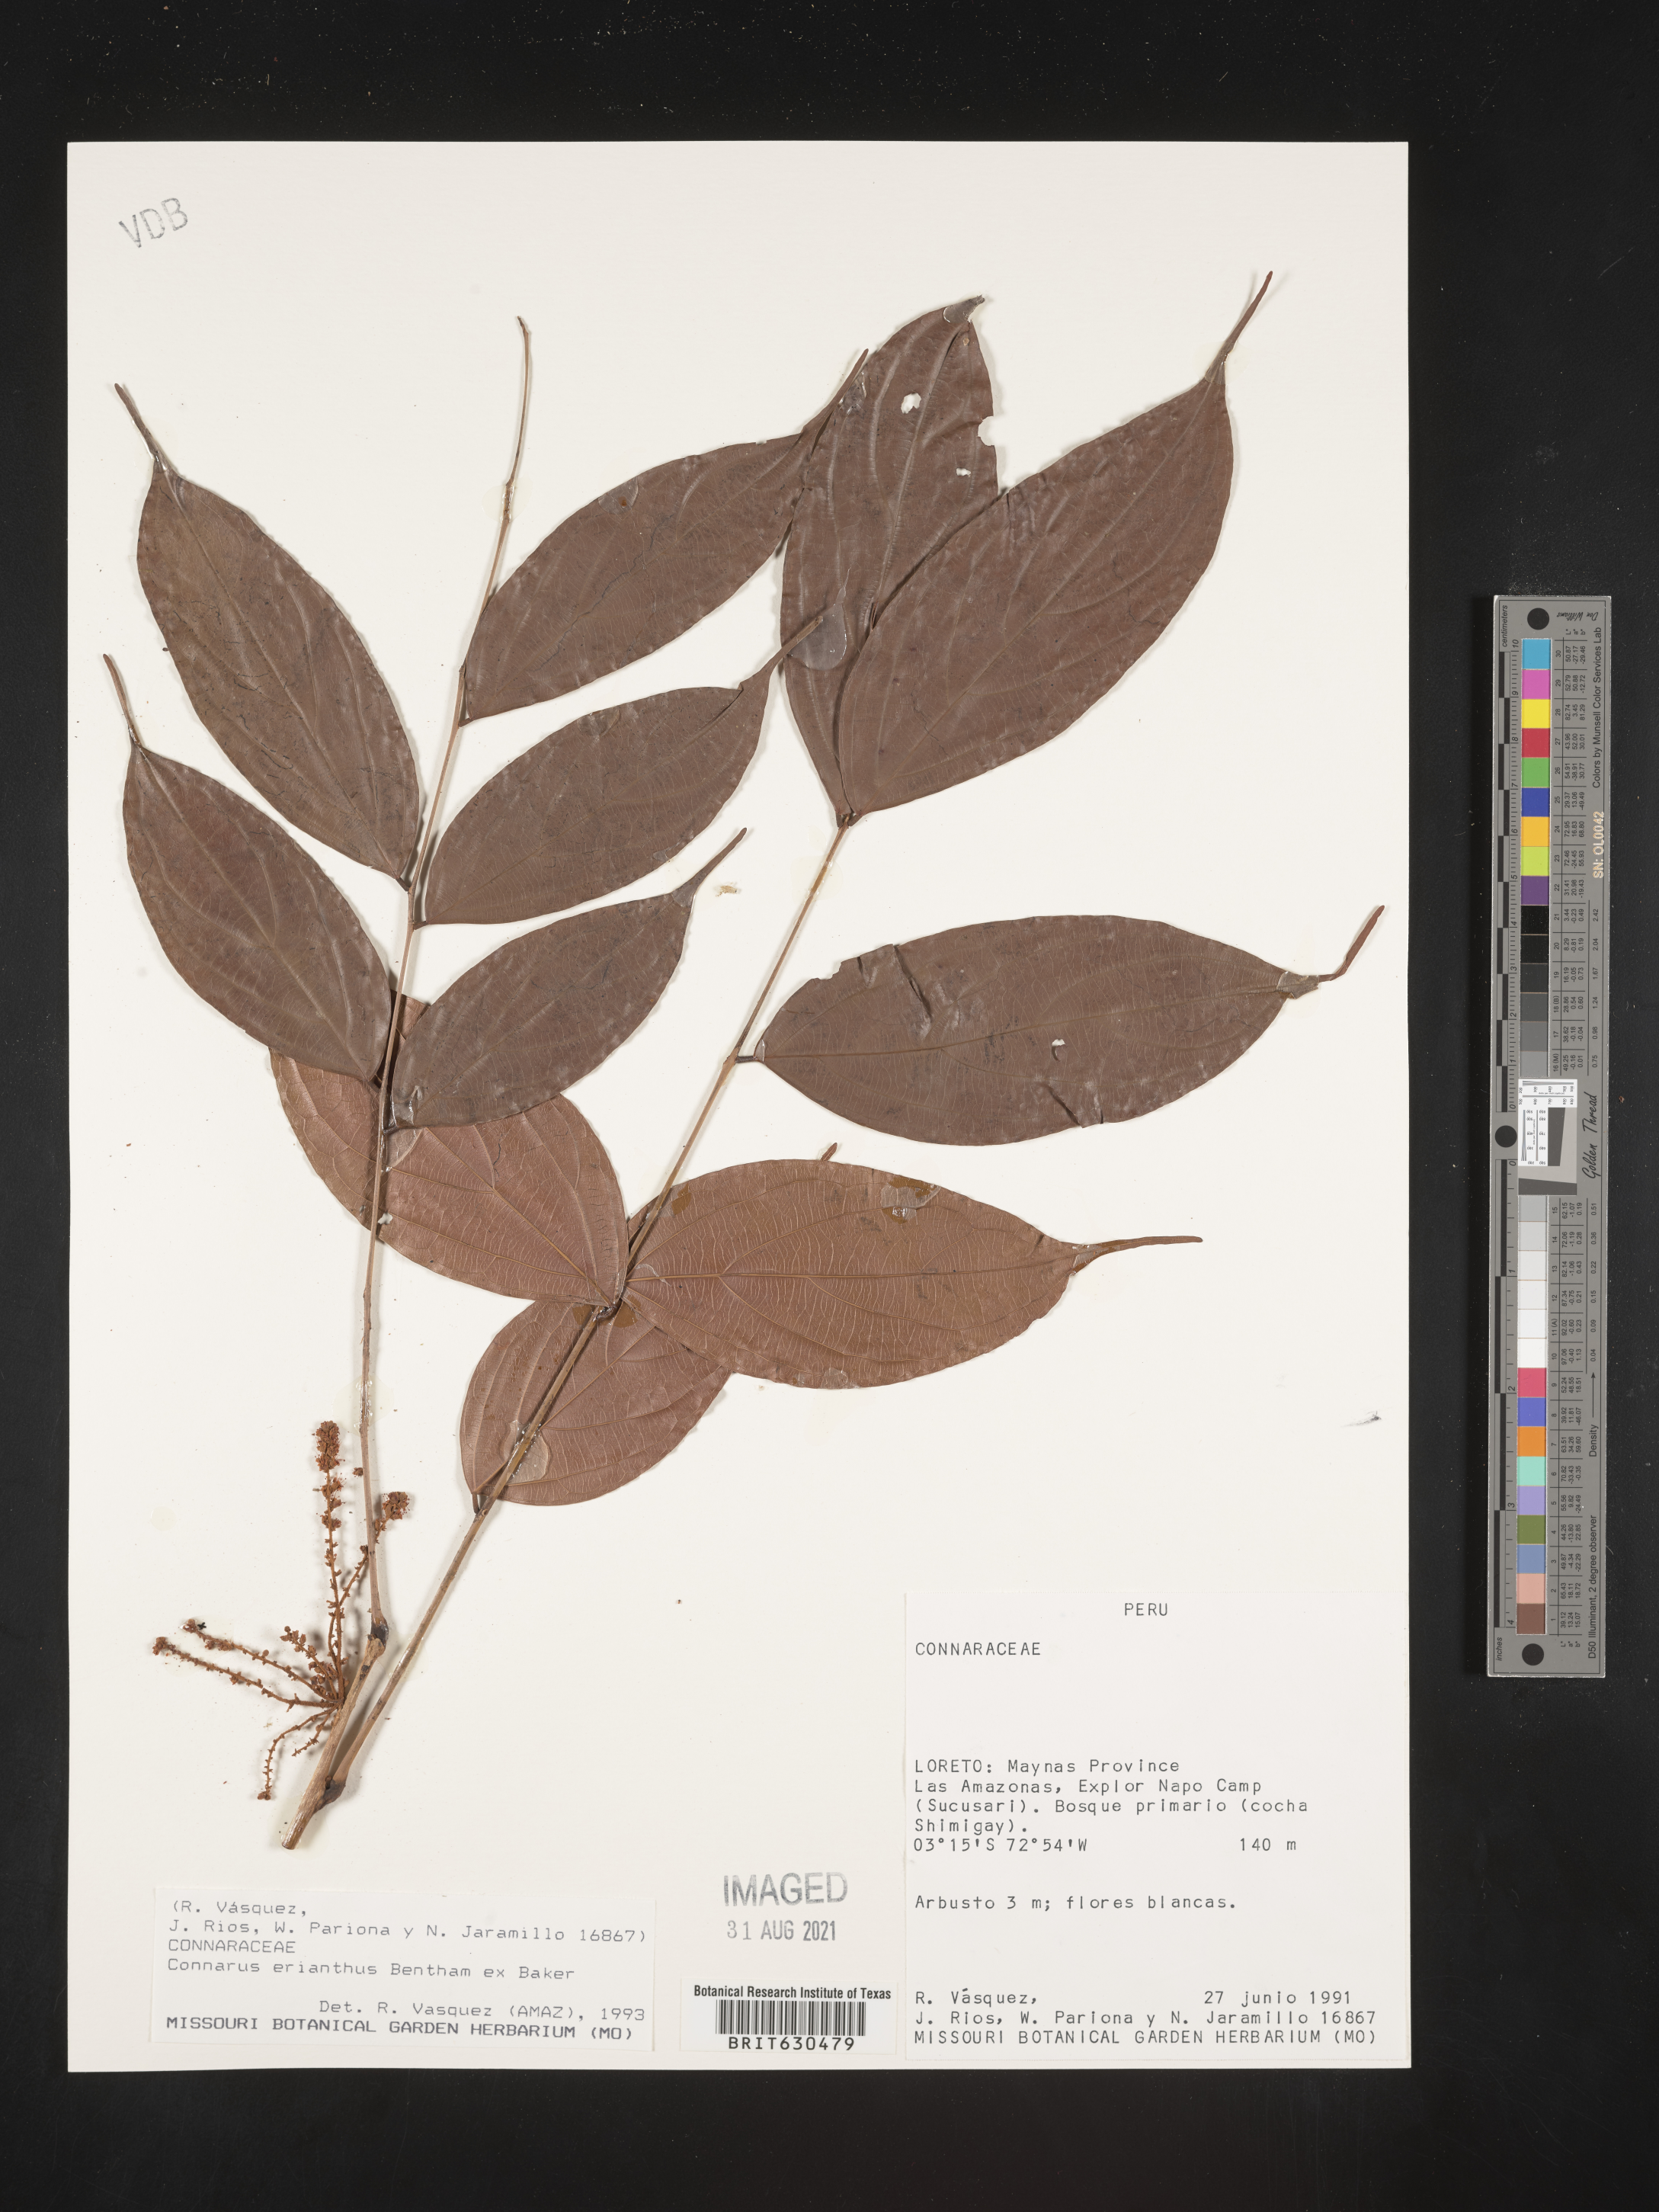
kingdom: Plantae
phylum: Tracheophyta
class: Magnoliopsida
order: Oxalidales
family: Connaraceae
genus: Connarus
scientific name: Connarus erianthus
